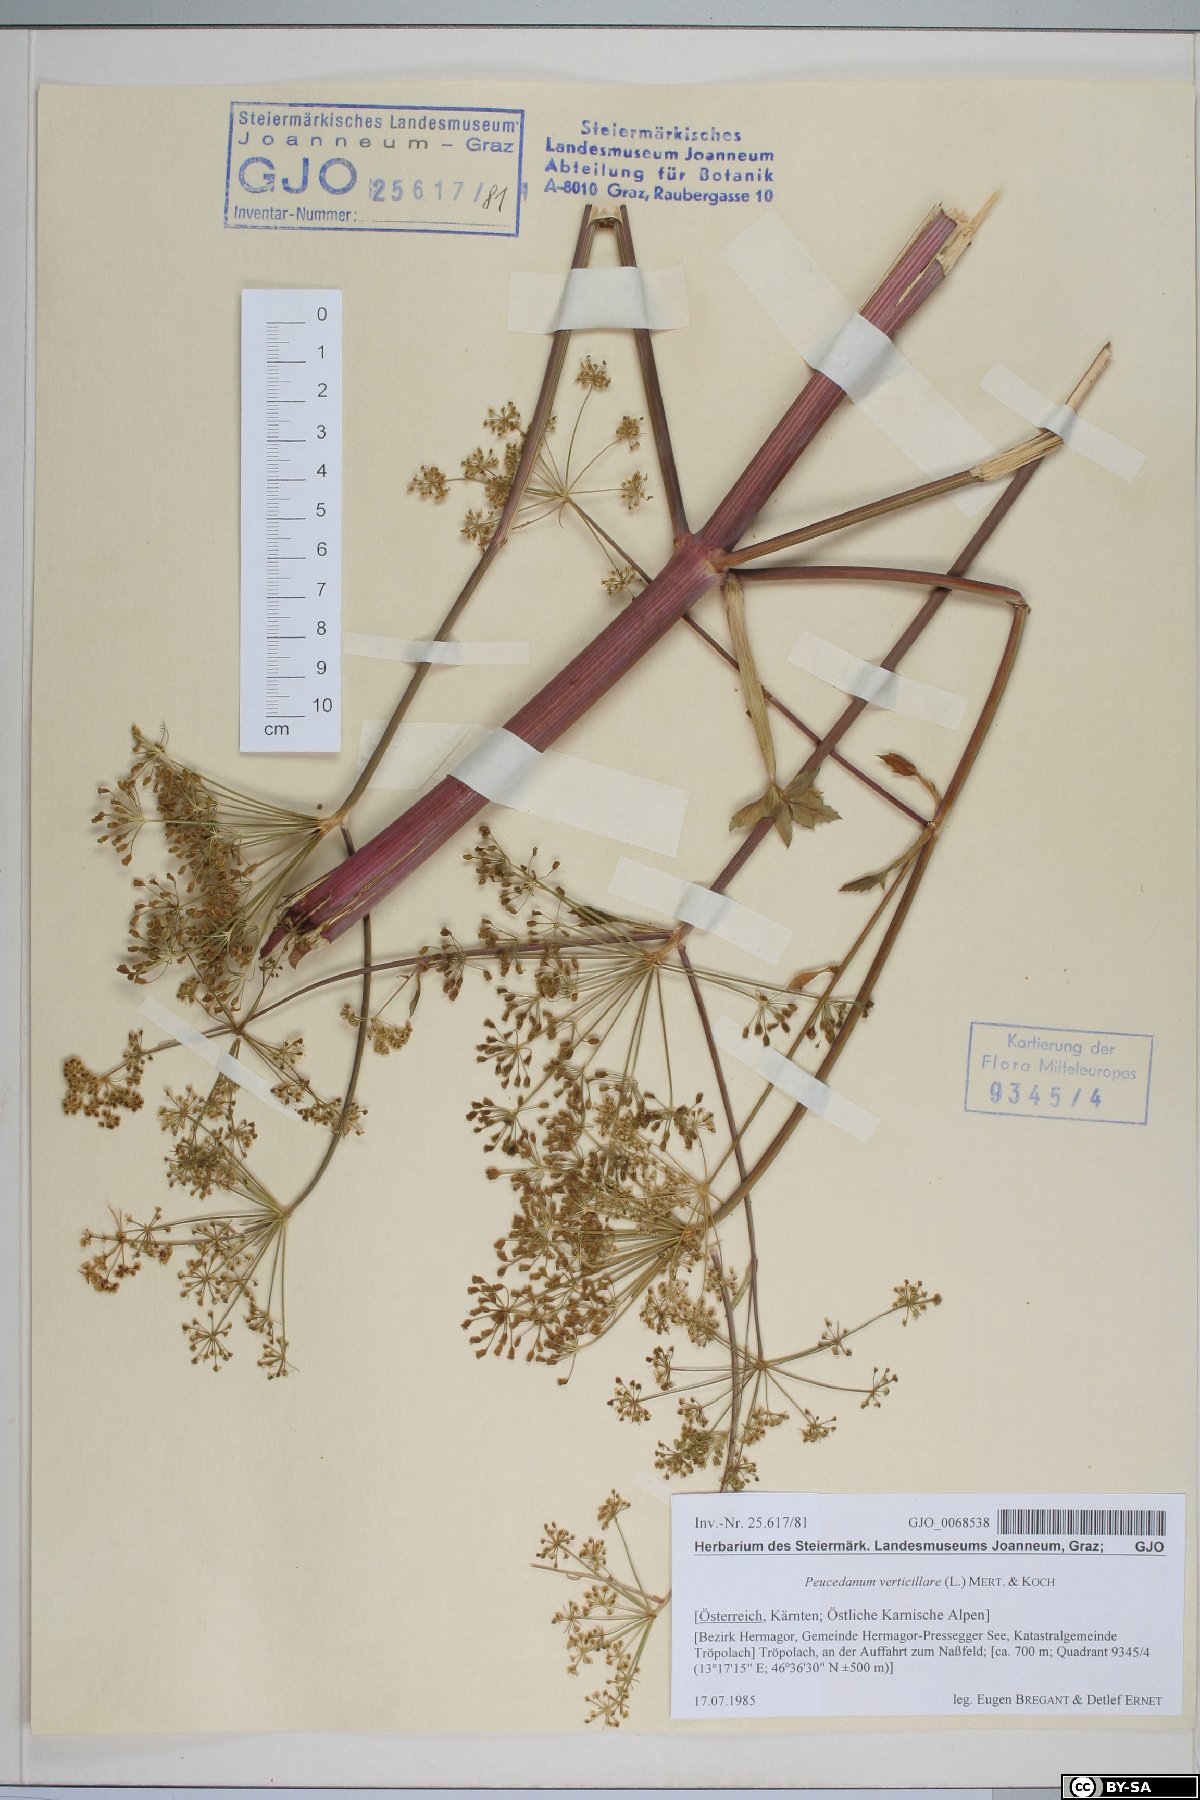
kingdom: Plantae
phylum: Tracheophyta
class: Magnoliopsida
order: Apiales
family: Apiaceae
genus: Tommasinia
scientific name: Tommasinia altissima
